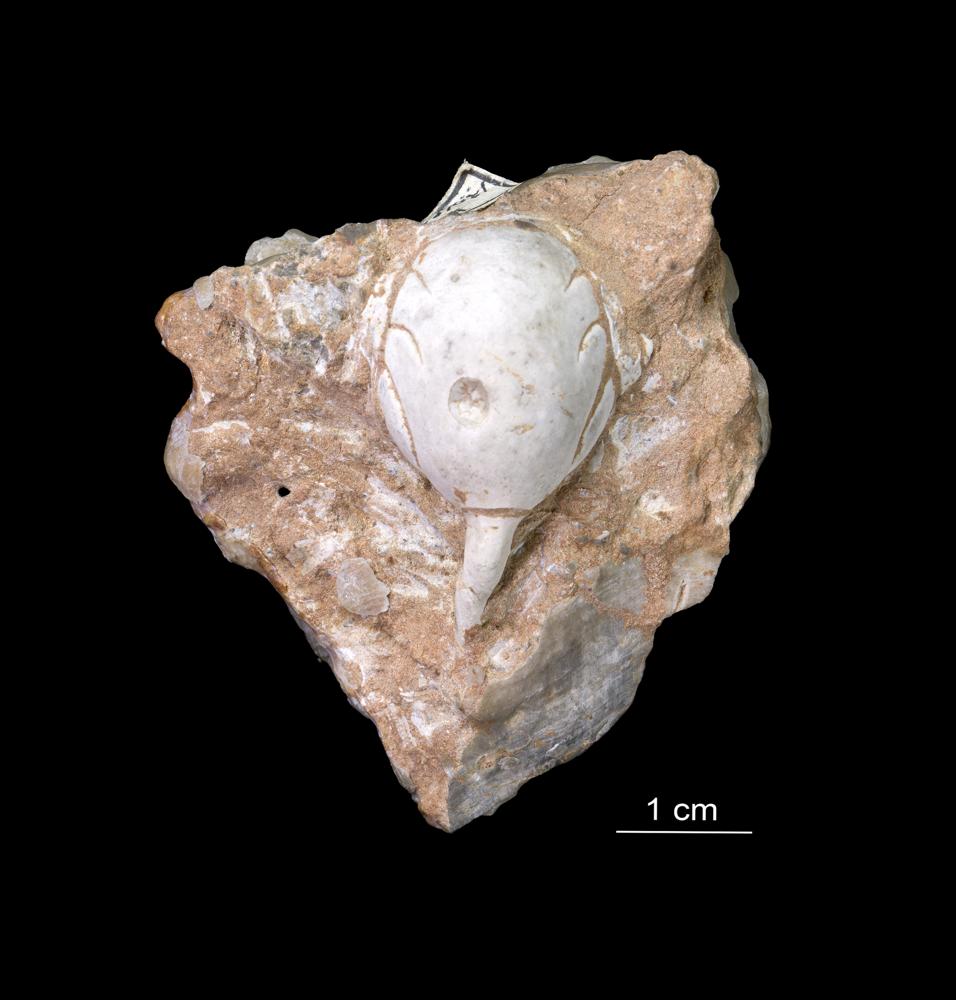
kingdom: Animalia
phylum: Arthropoda
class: Trilobita
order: Phacopida
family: Cheiruridae
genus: Nieszkowskia
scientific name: Nieszkowskia
